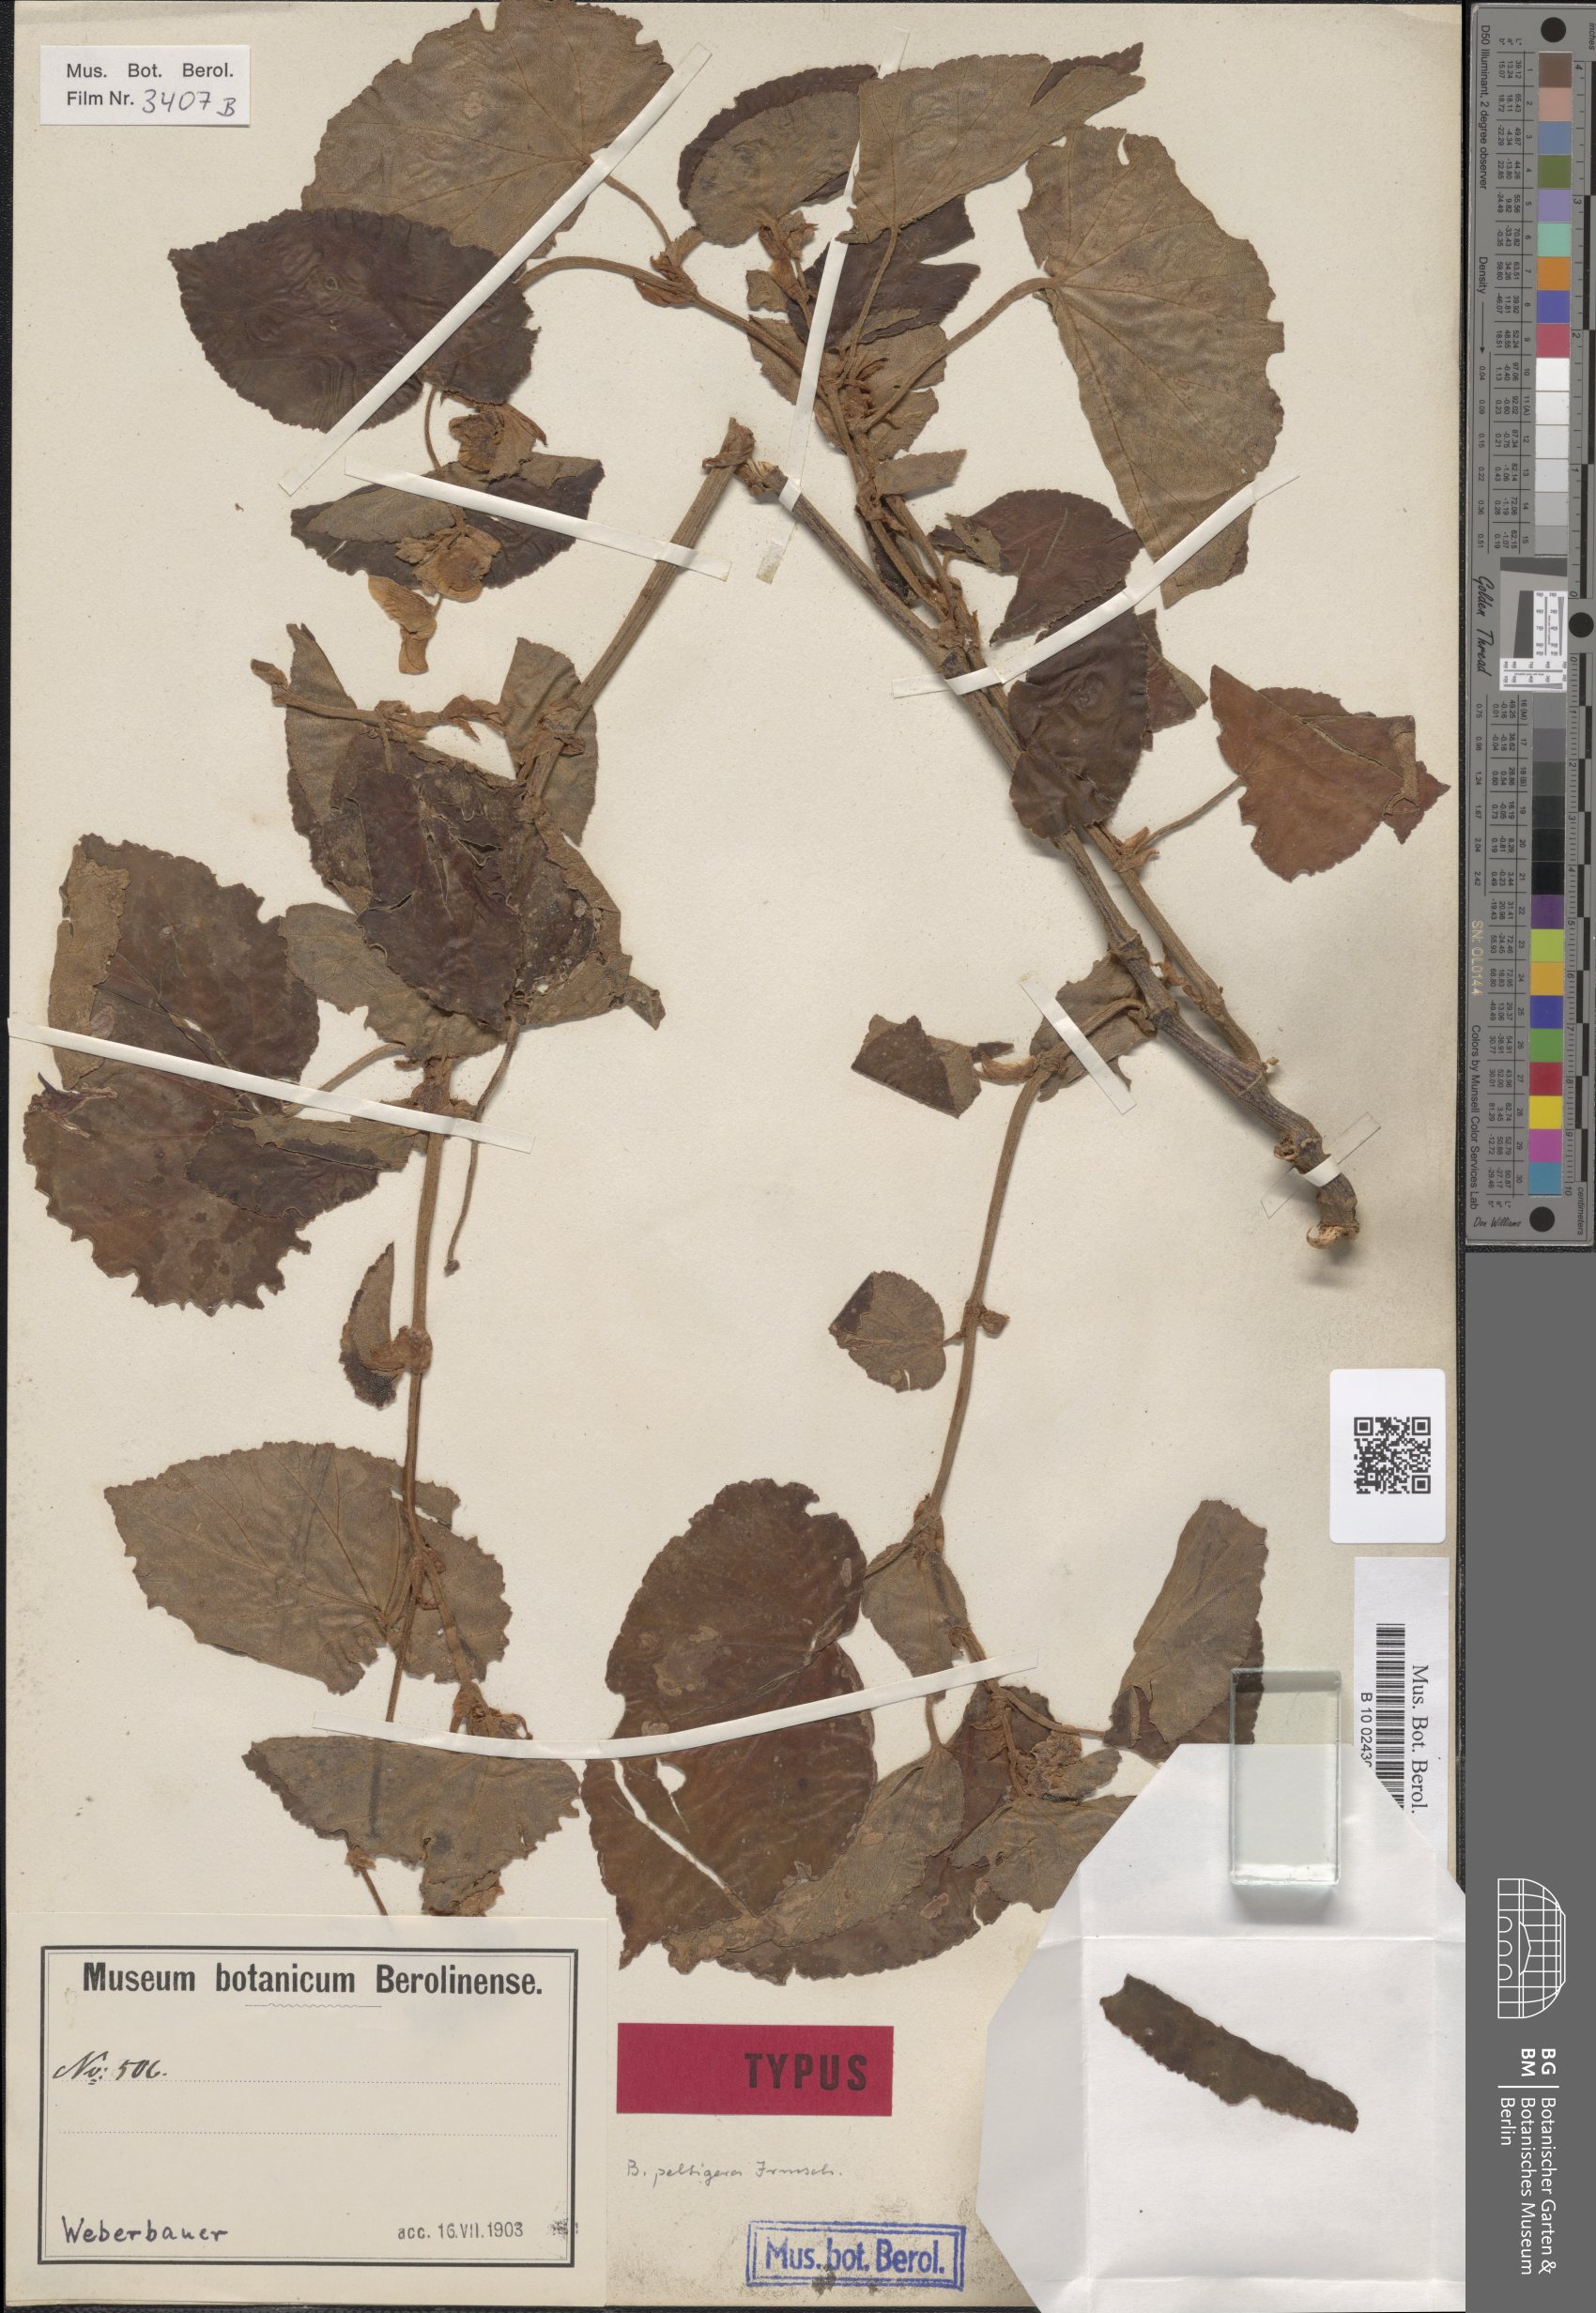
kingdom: Plantae
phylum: Tracheophyta
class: Magnoliopsida
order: Cucurbitales
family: Begoniaceae
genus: Begonia
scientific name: Begonia peltigera
